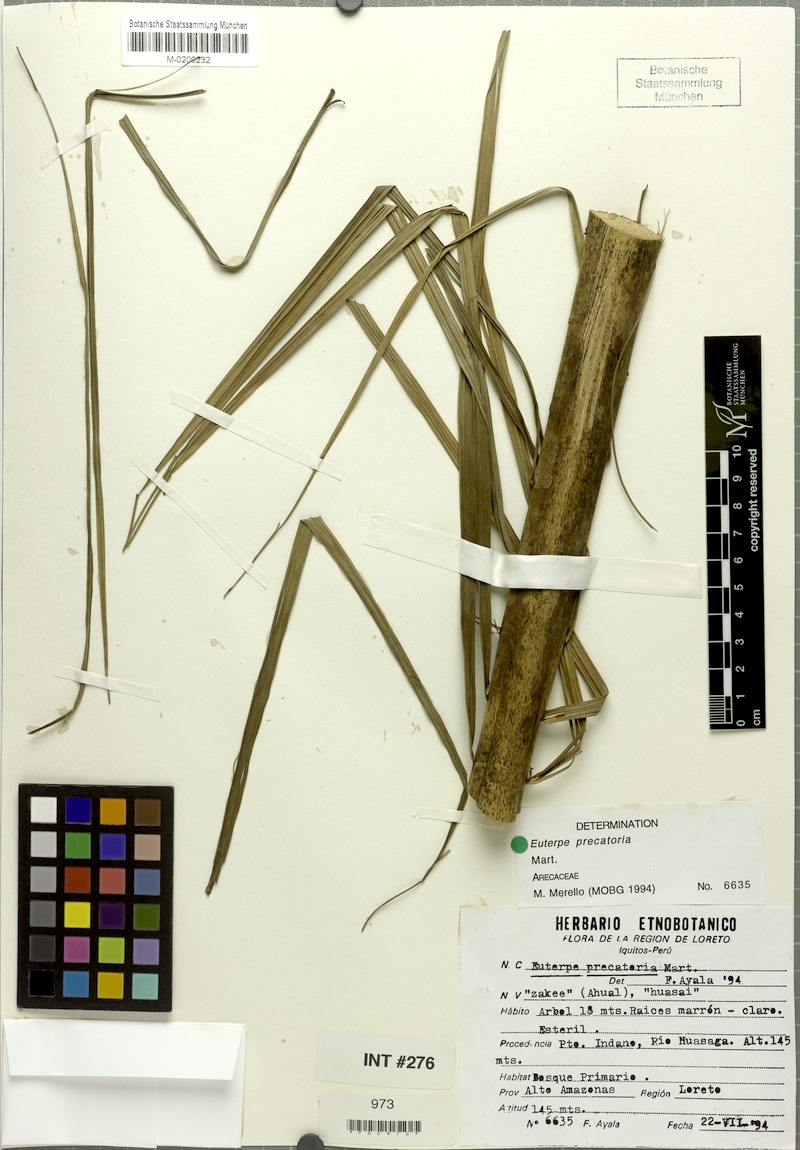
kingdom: Plantae
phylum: Tracheophyta
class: Liliopsida
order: Arecales
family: Arecaceae
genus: Euterpe
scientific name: Euterpe precatoria
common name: Mountain-cabbage
